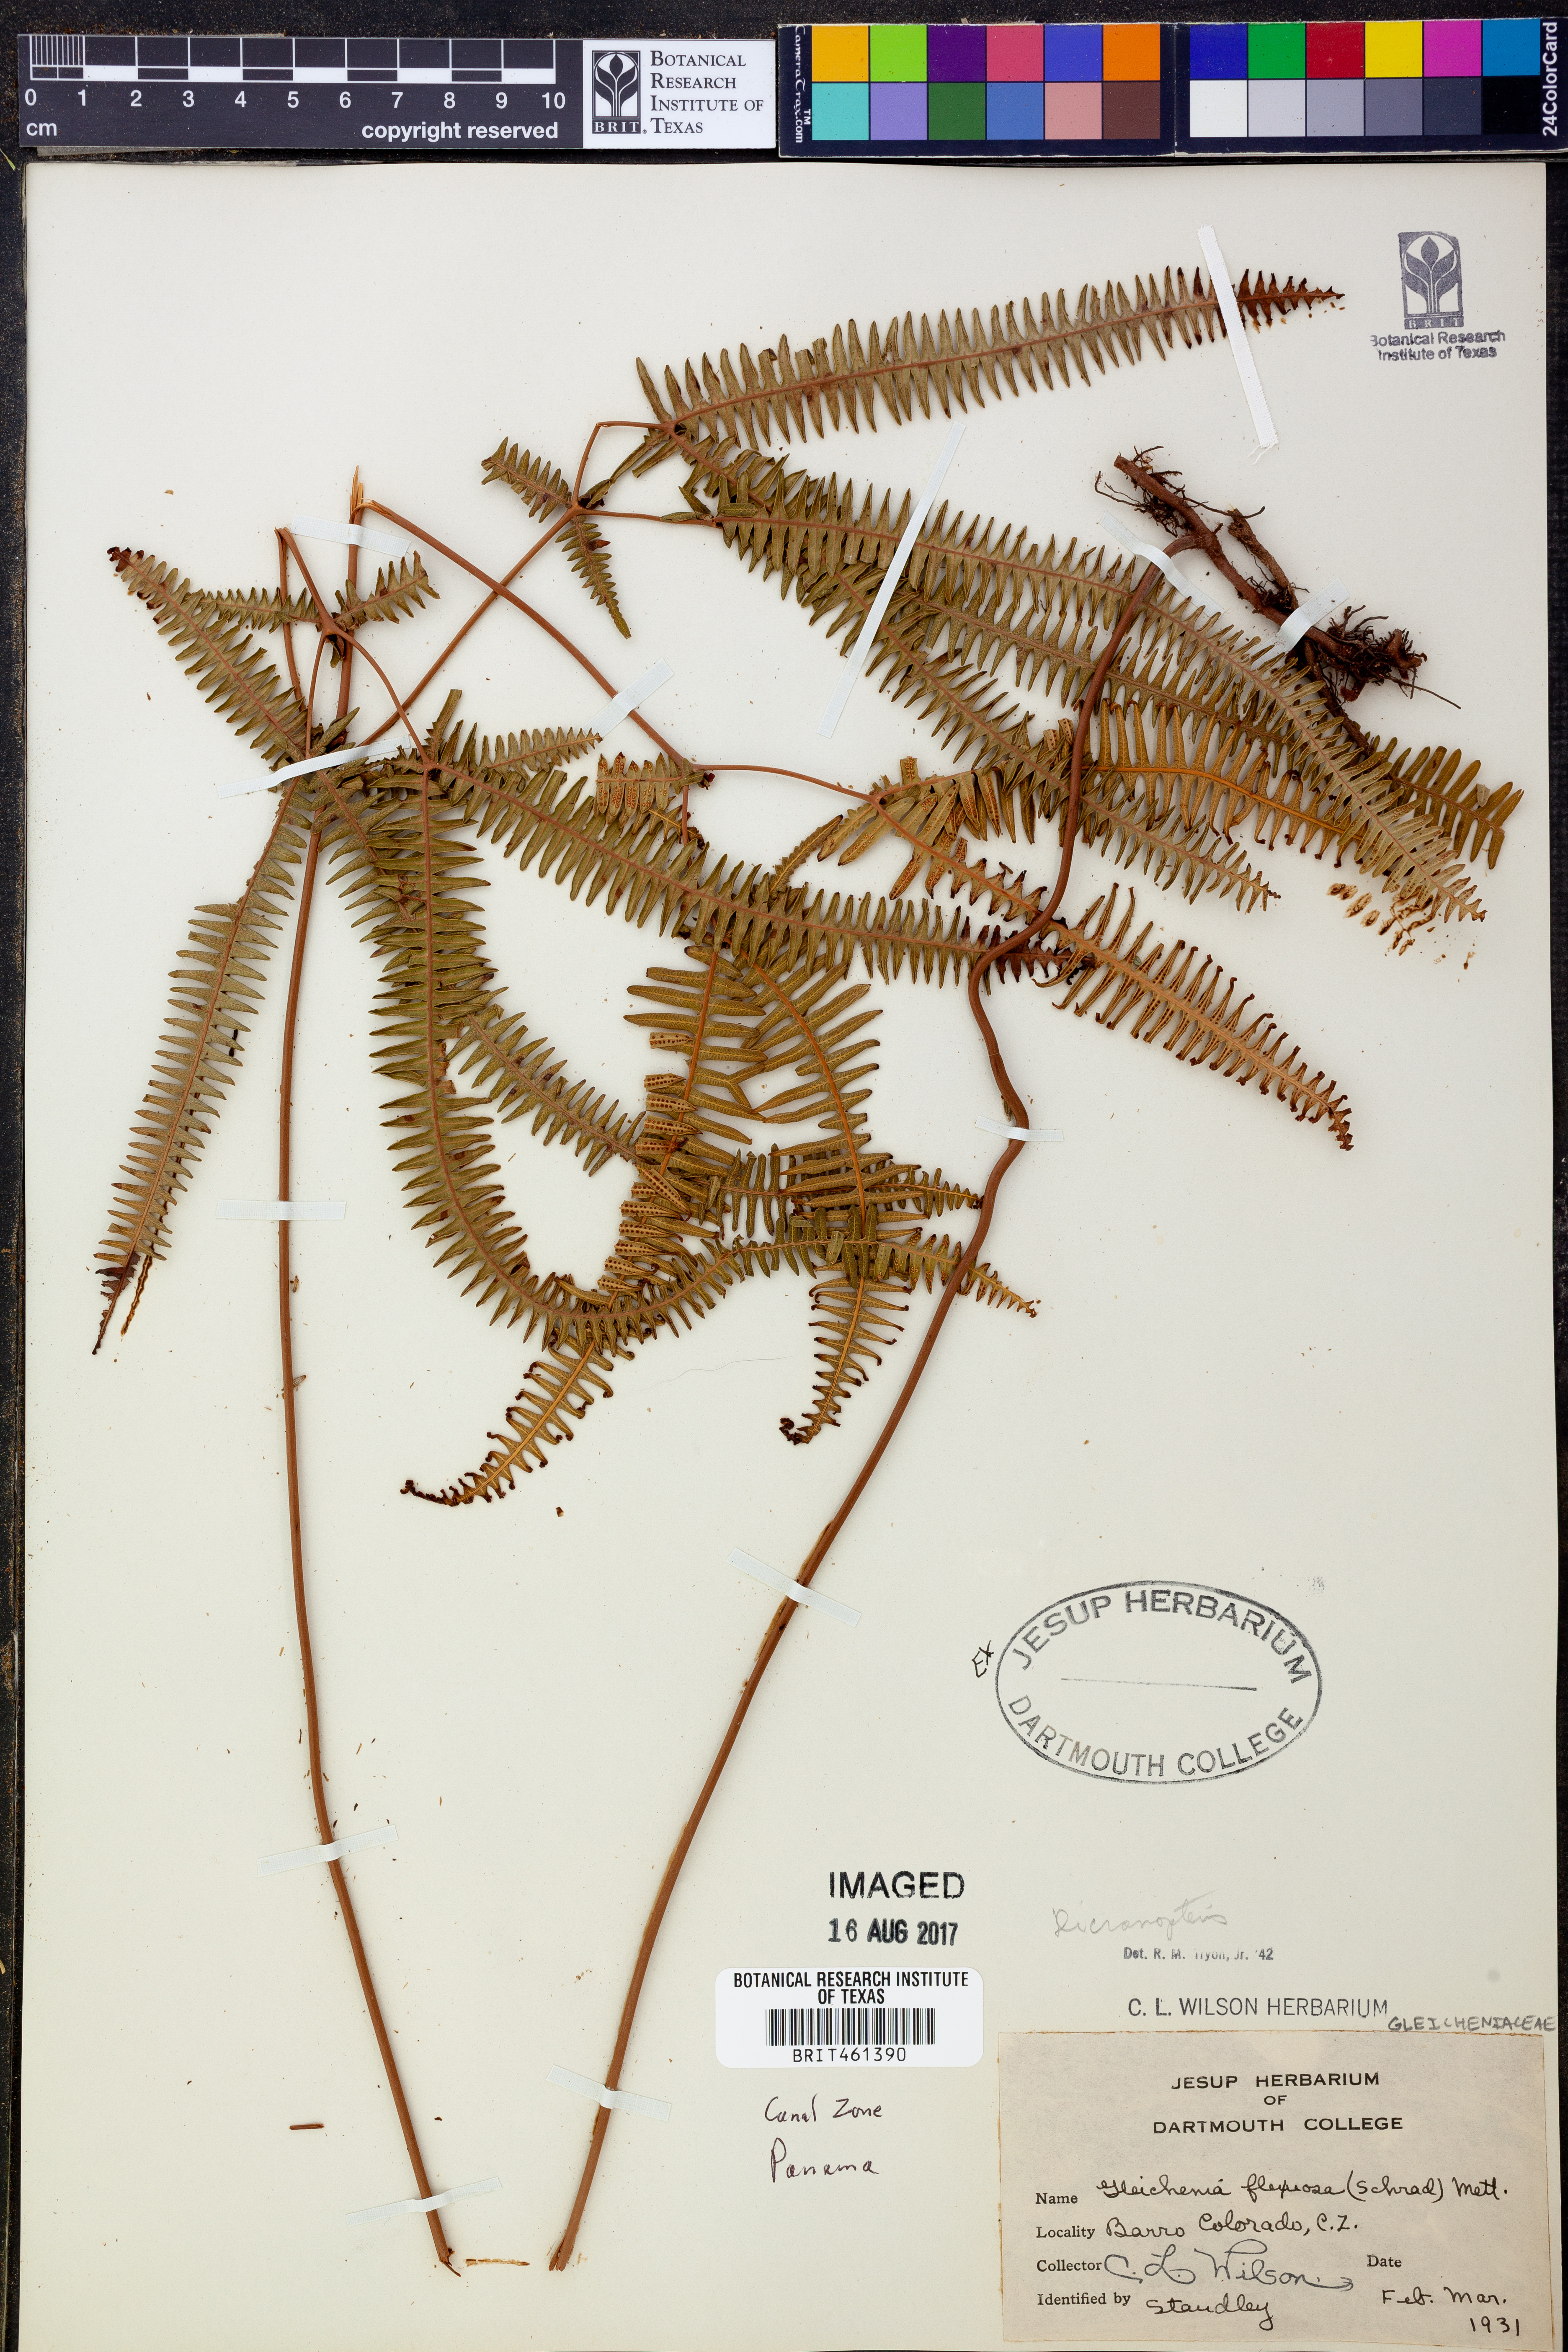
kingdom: Plantae
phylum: Tracheophyta
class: Polypodiopsida
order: Gleicheniales
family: Gleicheniaceae
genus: Dicranopteris
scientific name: Dicranopteris flexuosa
